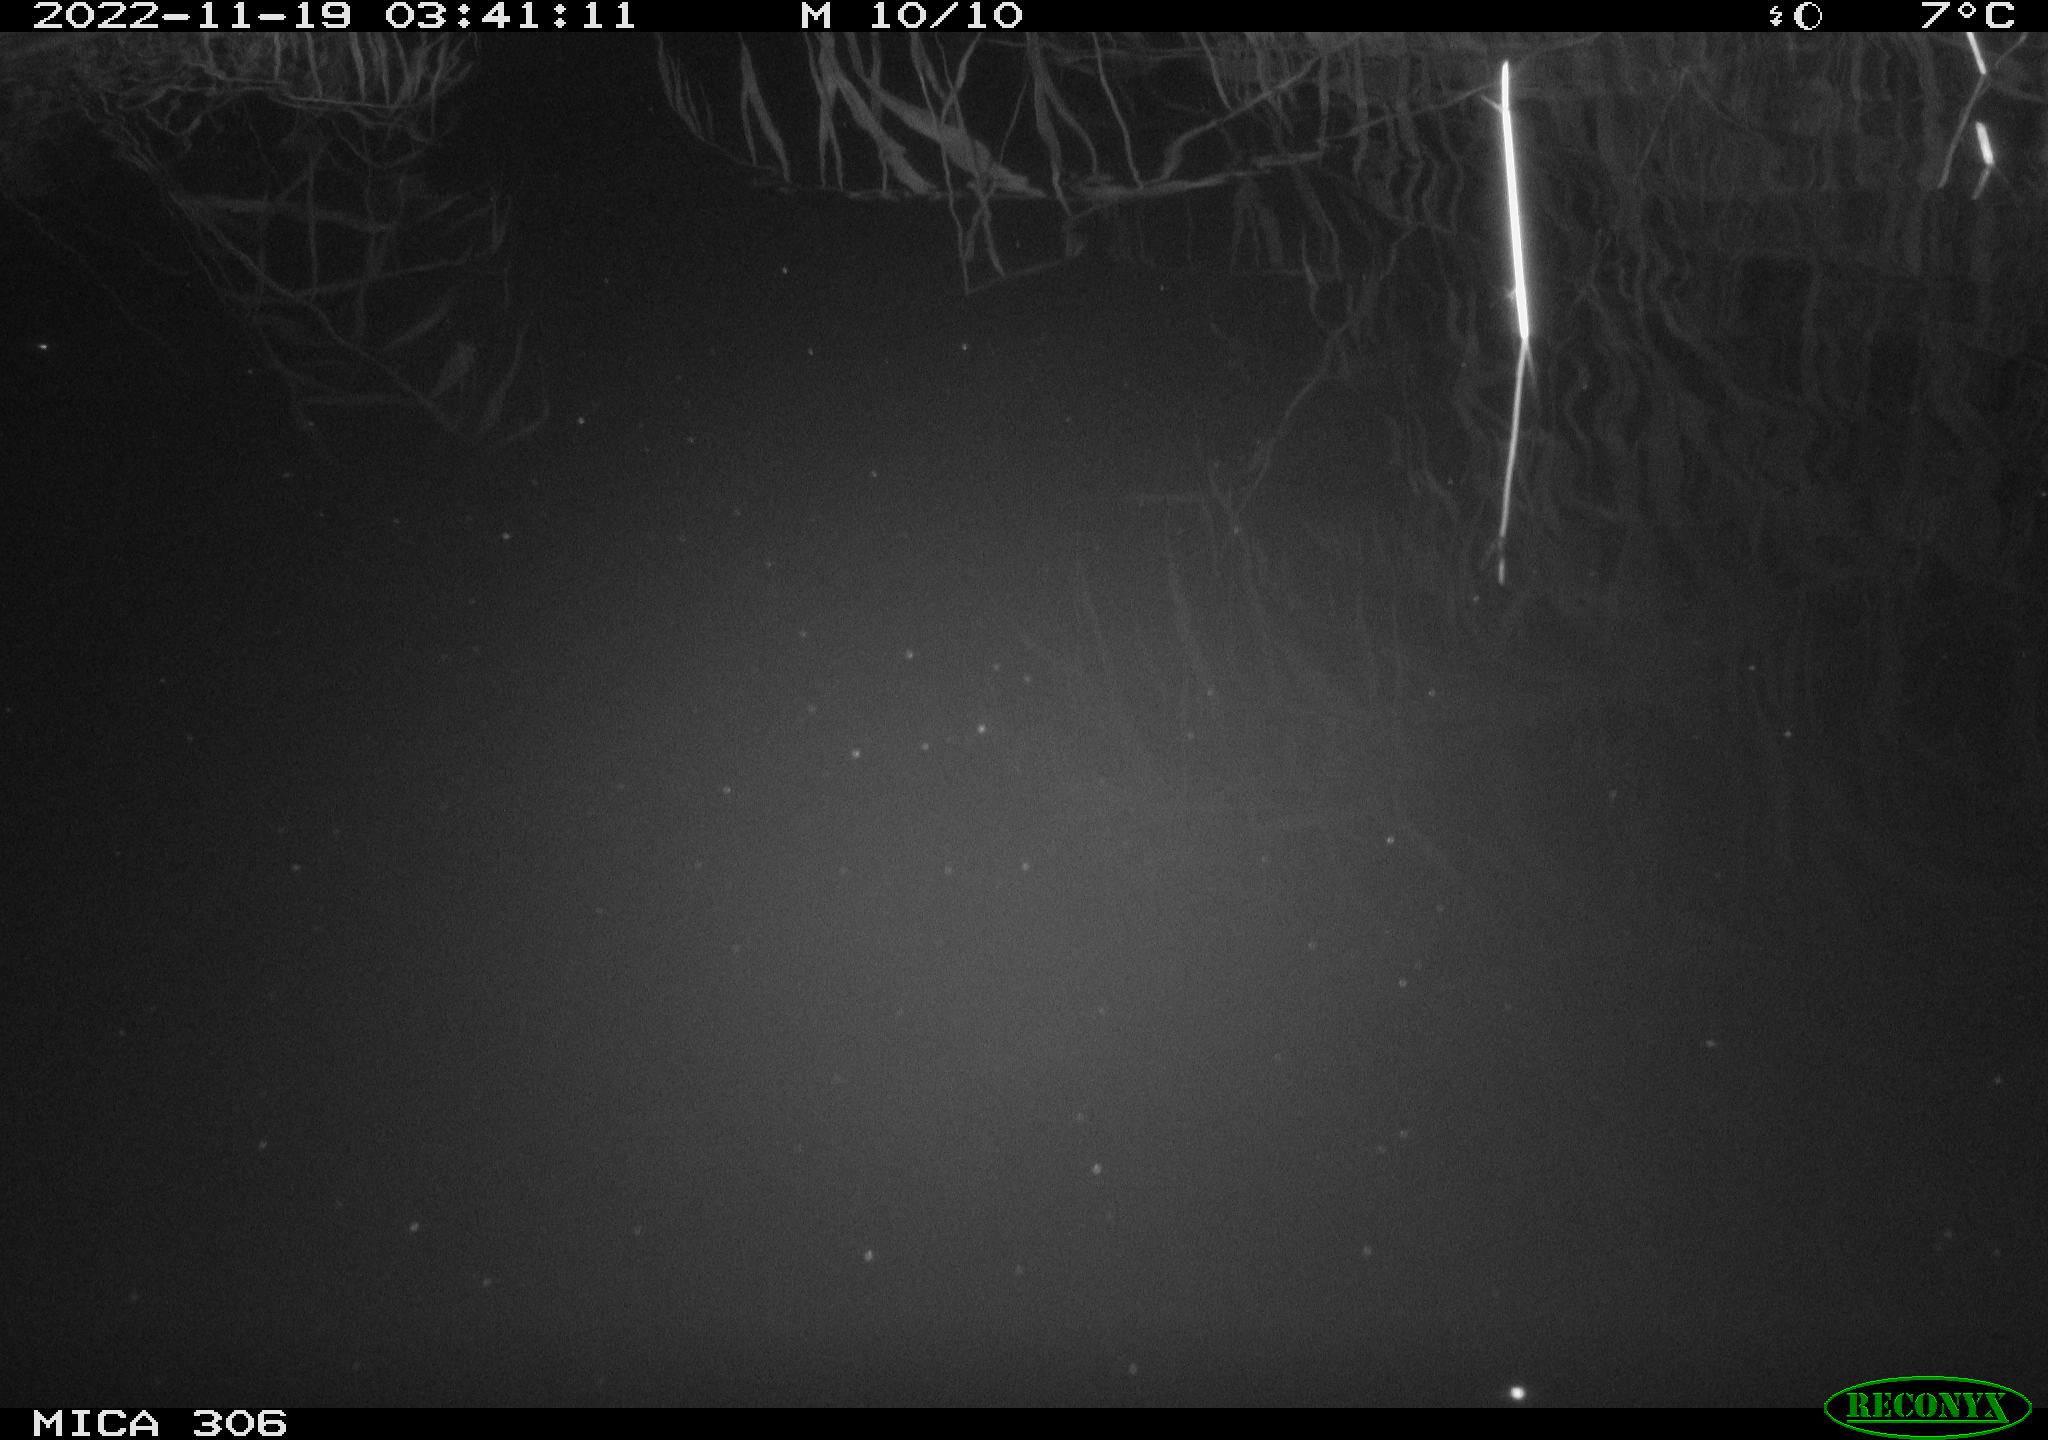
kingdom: Animalia
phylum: Chordata
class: Mammalia
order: Rodentia
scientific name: Rodentia
